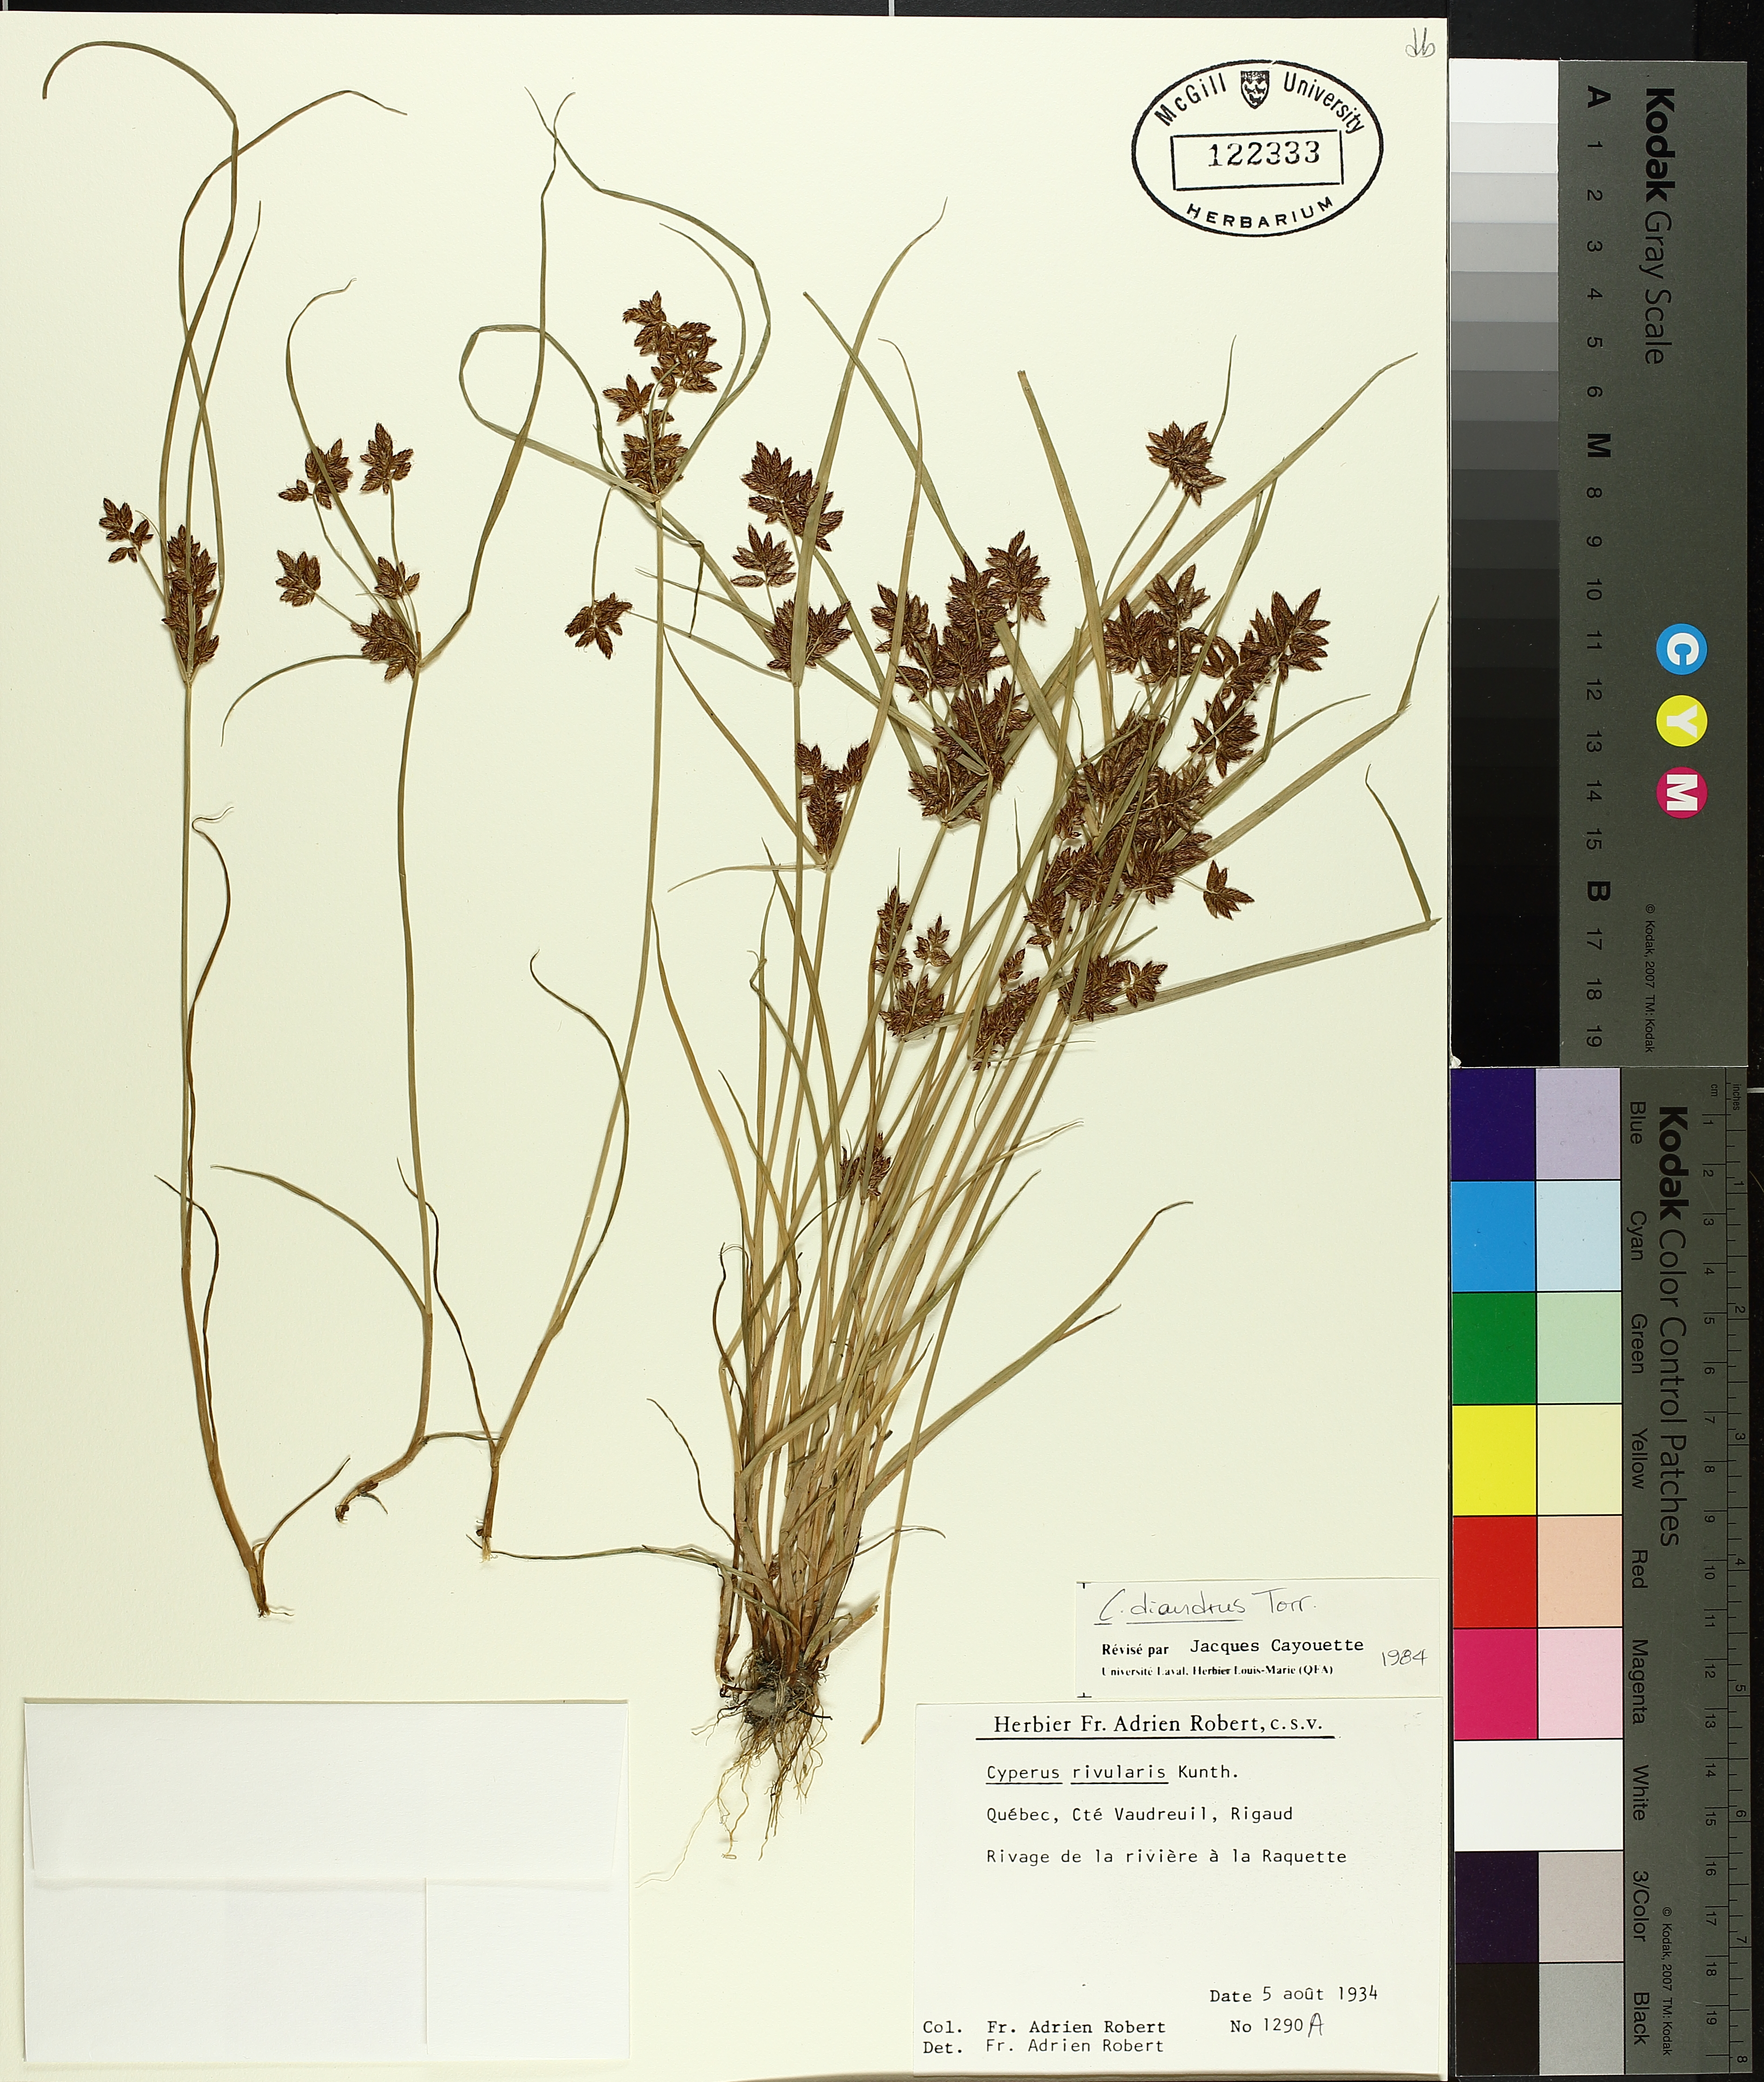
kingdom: Plantae
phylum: Tracheophyta
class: Liliopsida
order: Poales
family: Cyperaceae
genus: Cyperus
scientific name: Cyperus diandrus
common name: Low cyperus
